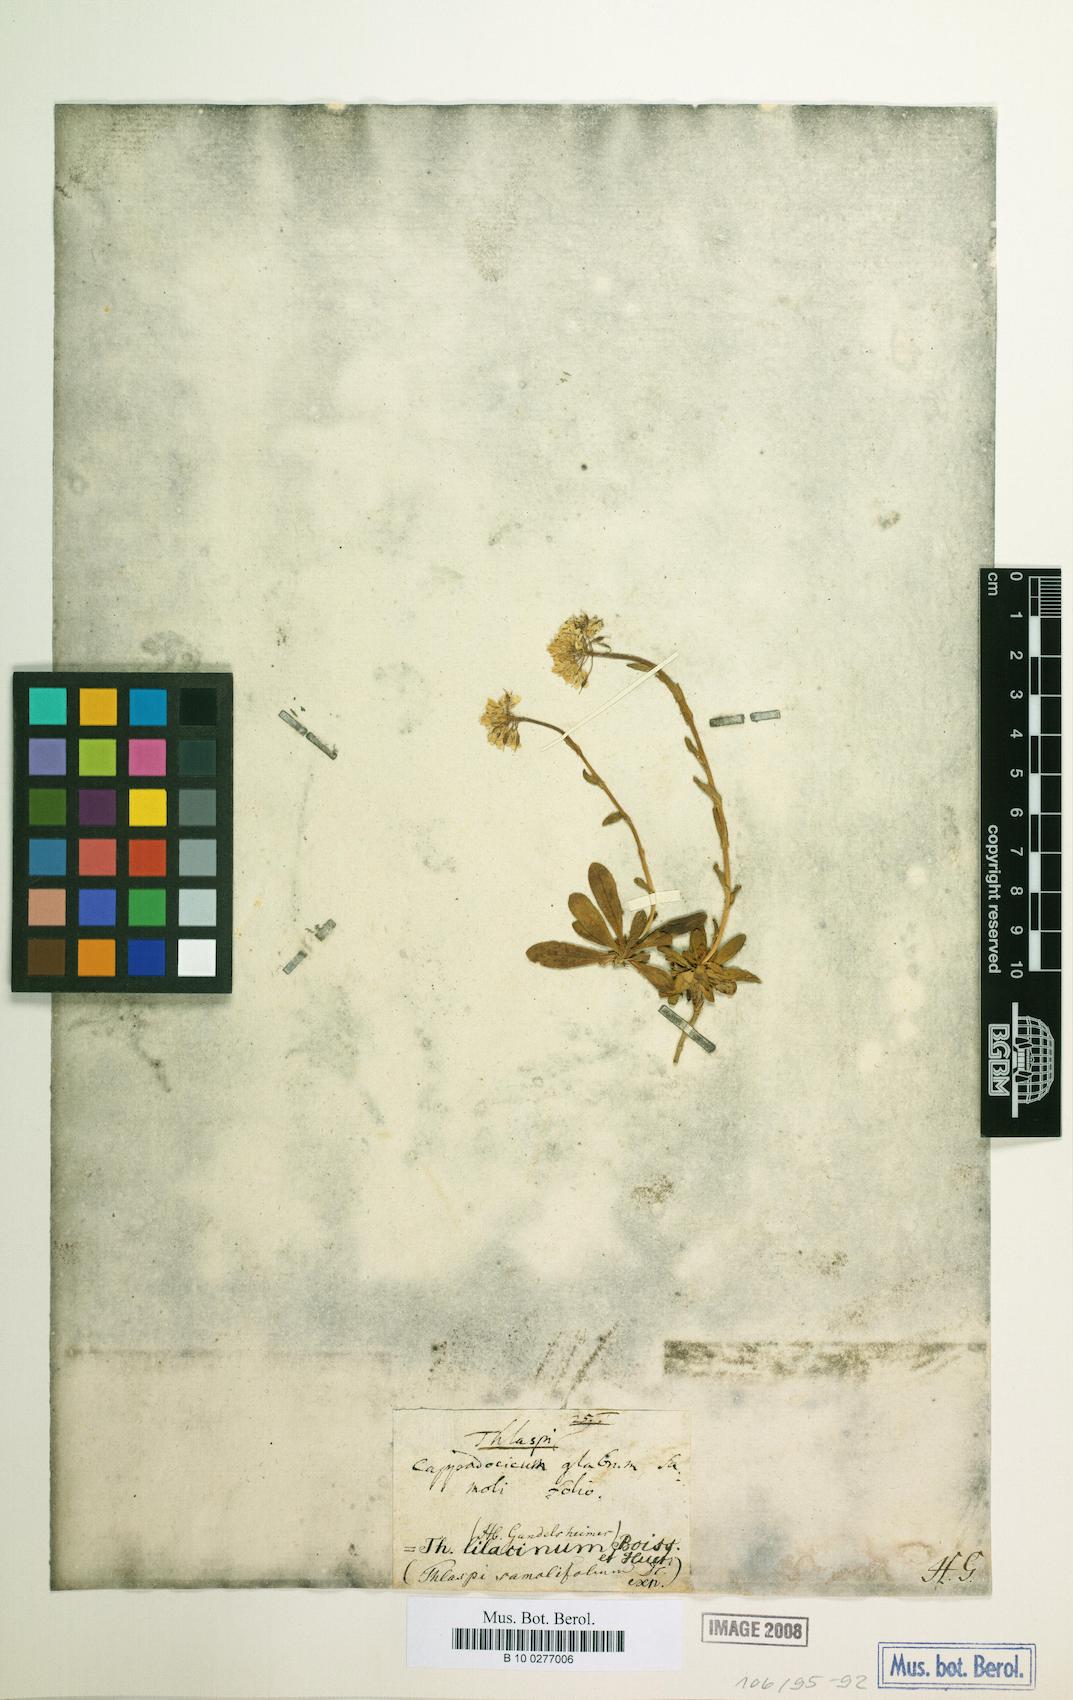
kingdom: Plantae
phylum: Tracheophyta
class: Magnoliopsida
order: Brassicales
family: Brassicaceae
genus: Noccaea
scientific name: Noccaea cappadocica
